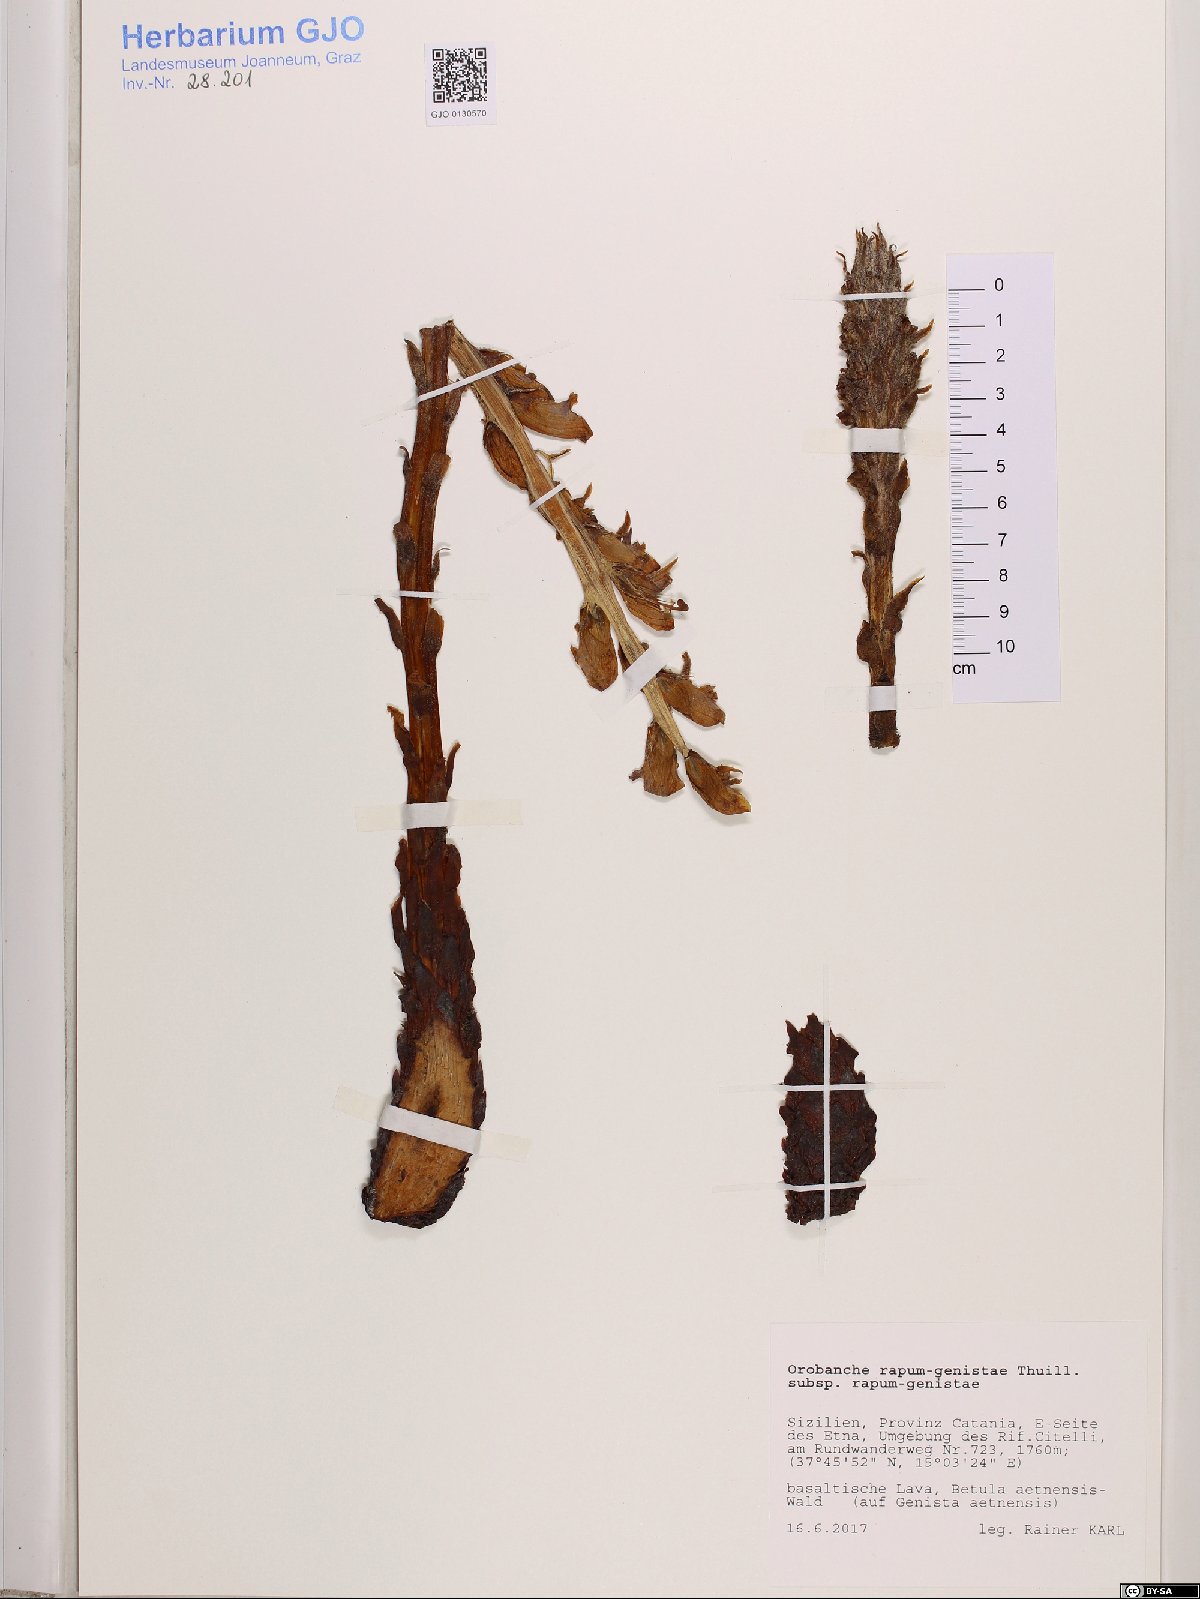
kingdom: Plantae
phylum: Tracheophyta
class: Magnoliopsida
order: Lamiales
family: Orobanchaceae
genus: Orobanche
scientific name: Orobanche rapum-genistae
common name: Greater broomrape
